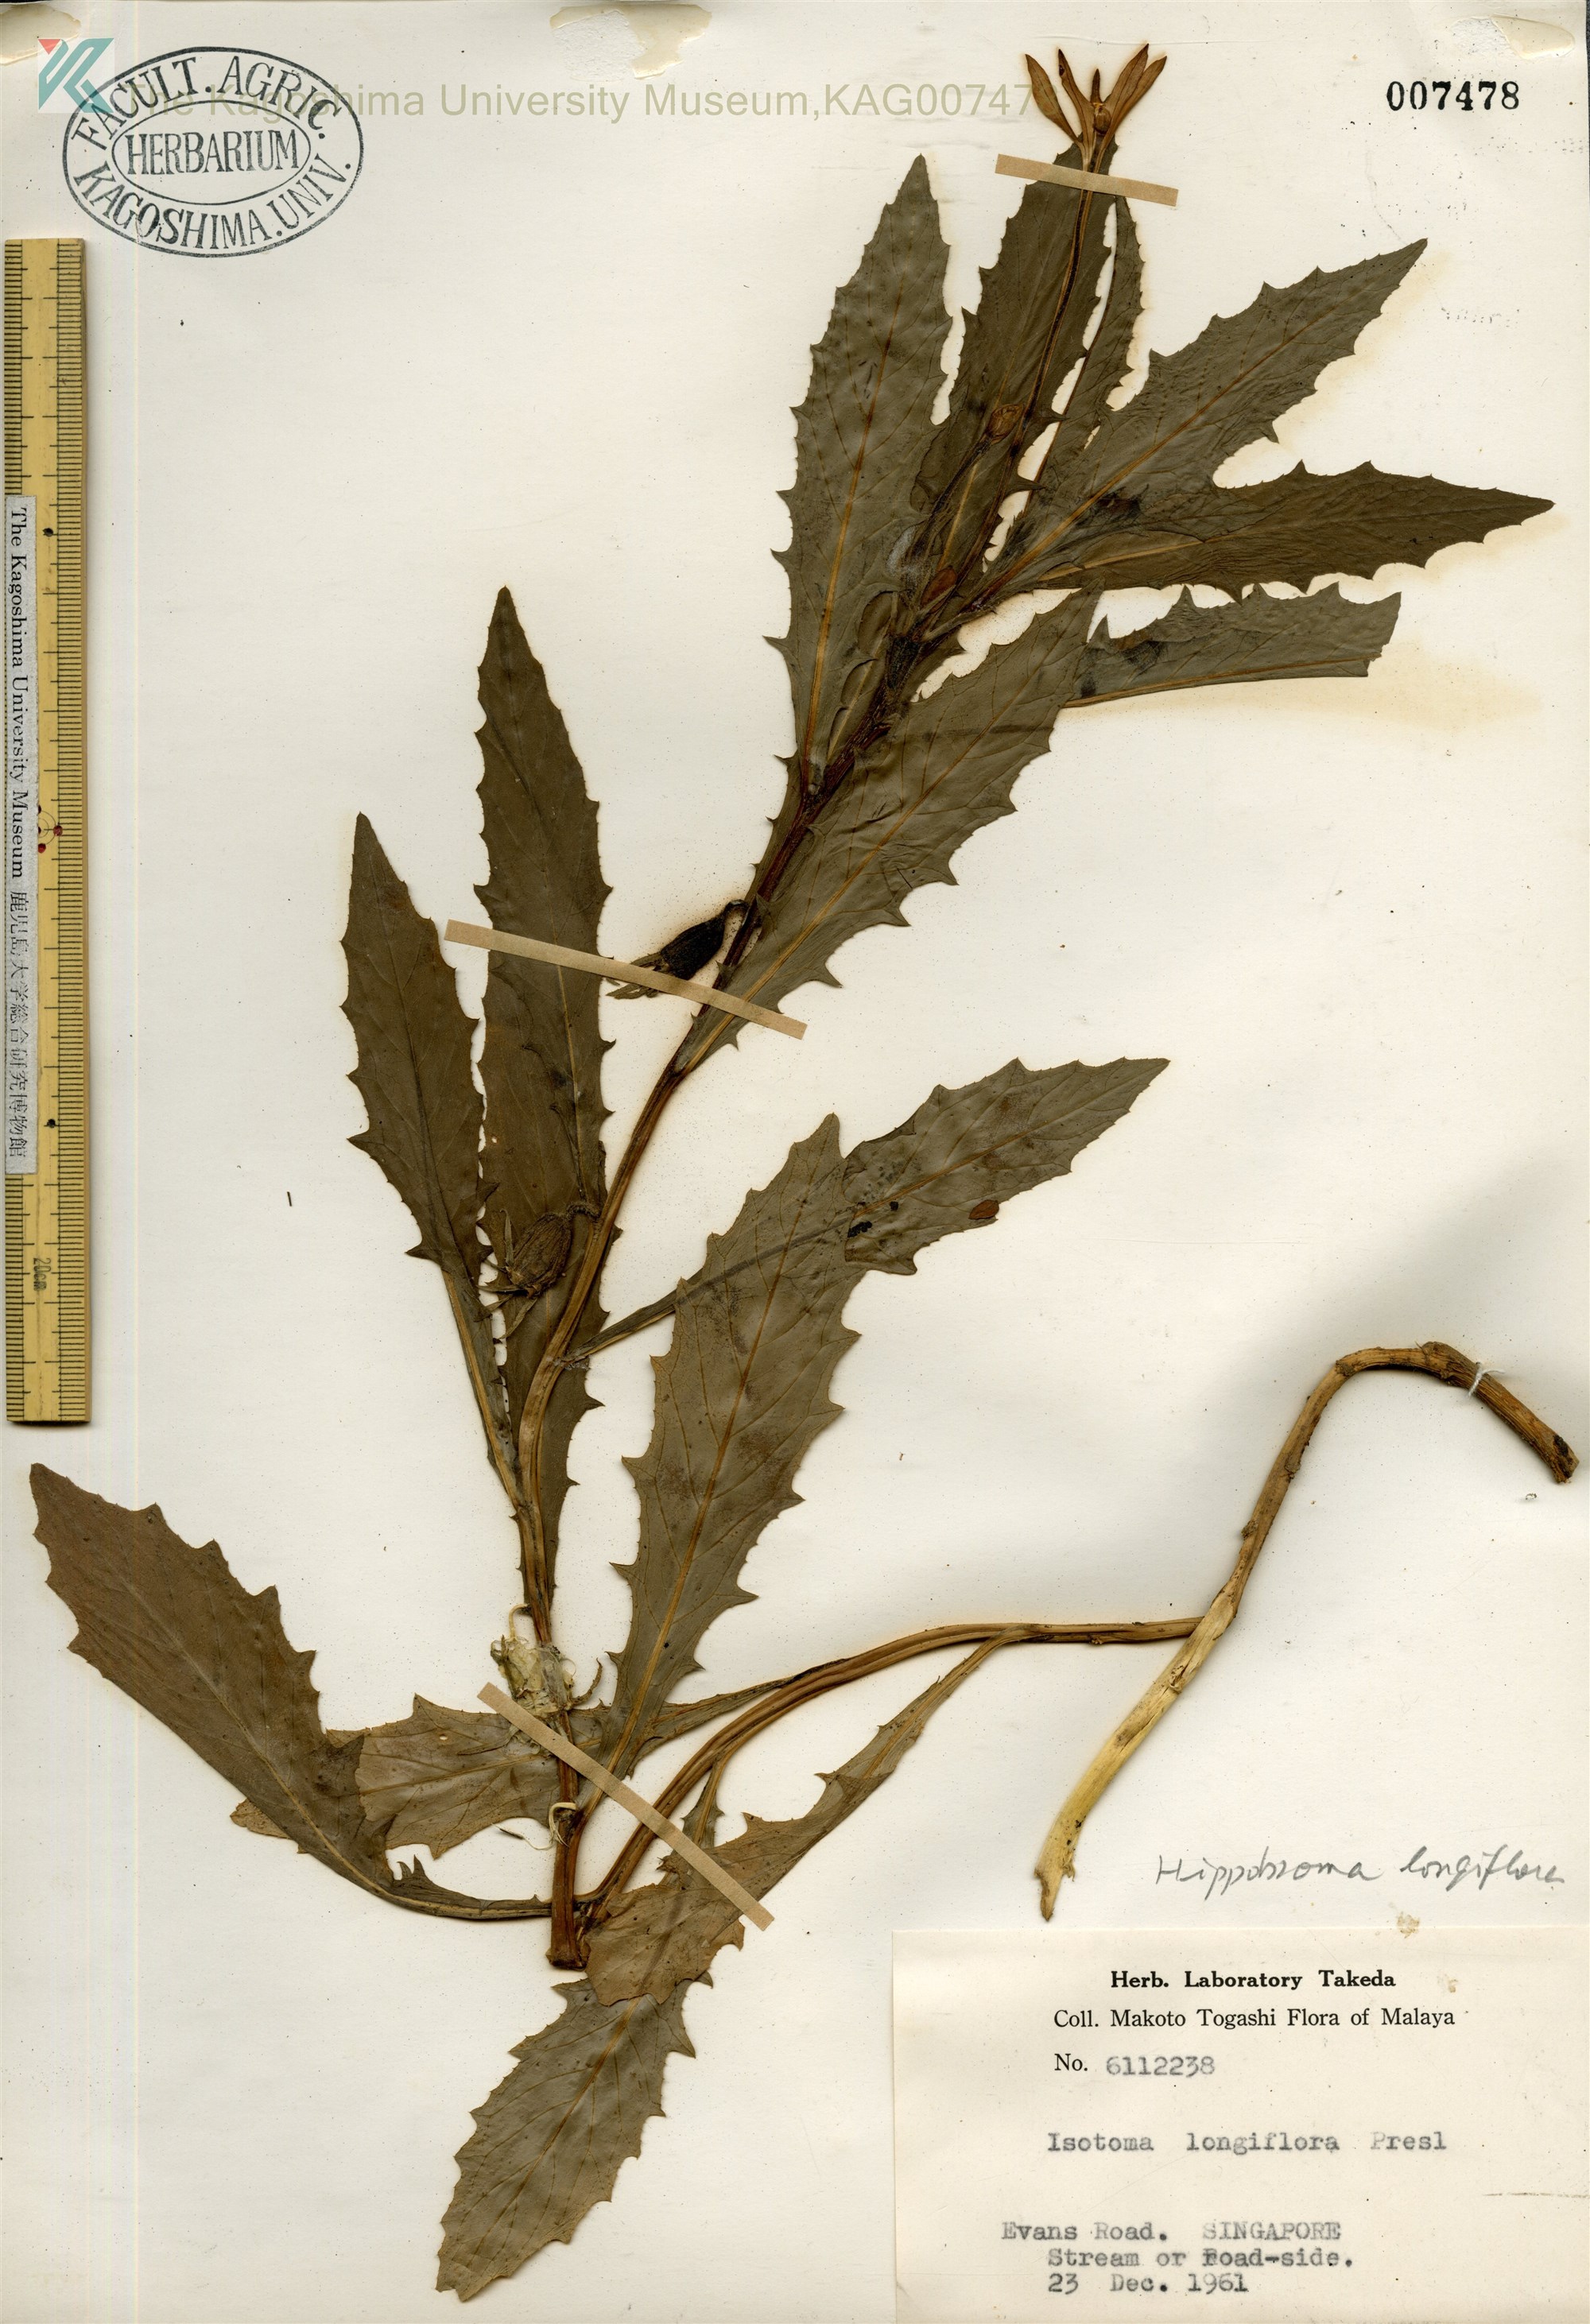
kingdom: Plantae
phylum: Tracheophyta
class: Magnoliopsida
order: Asterales
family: Campanulaceae
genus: Hippobroma
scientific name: Hippobroma longiflora
